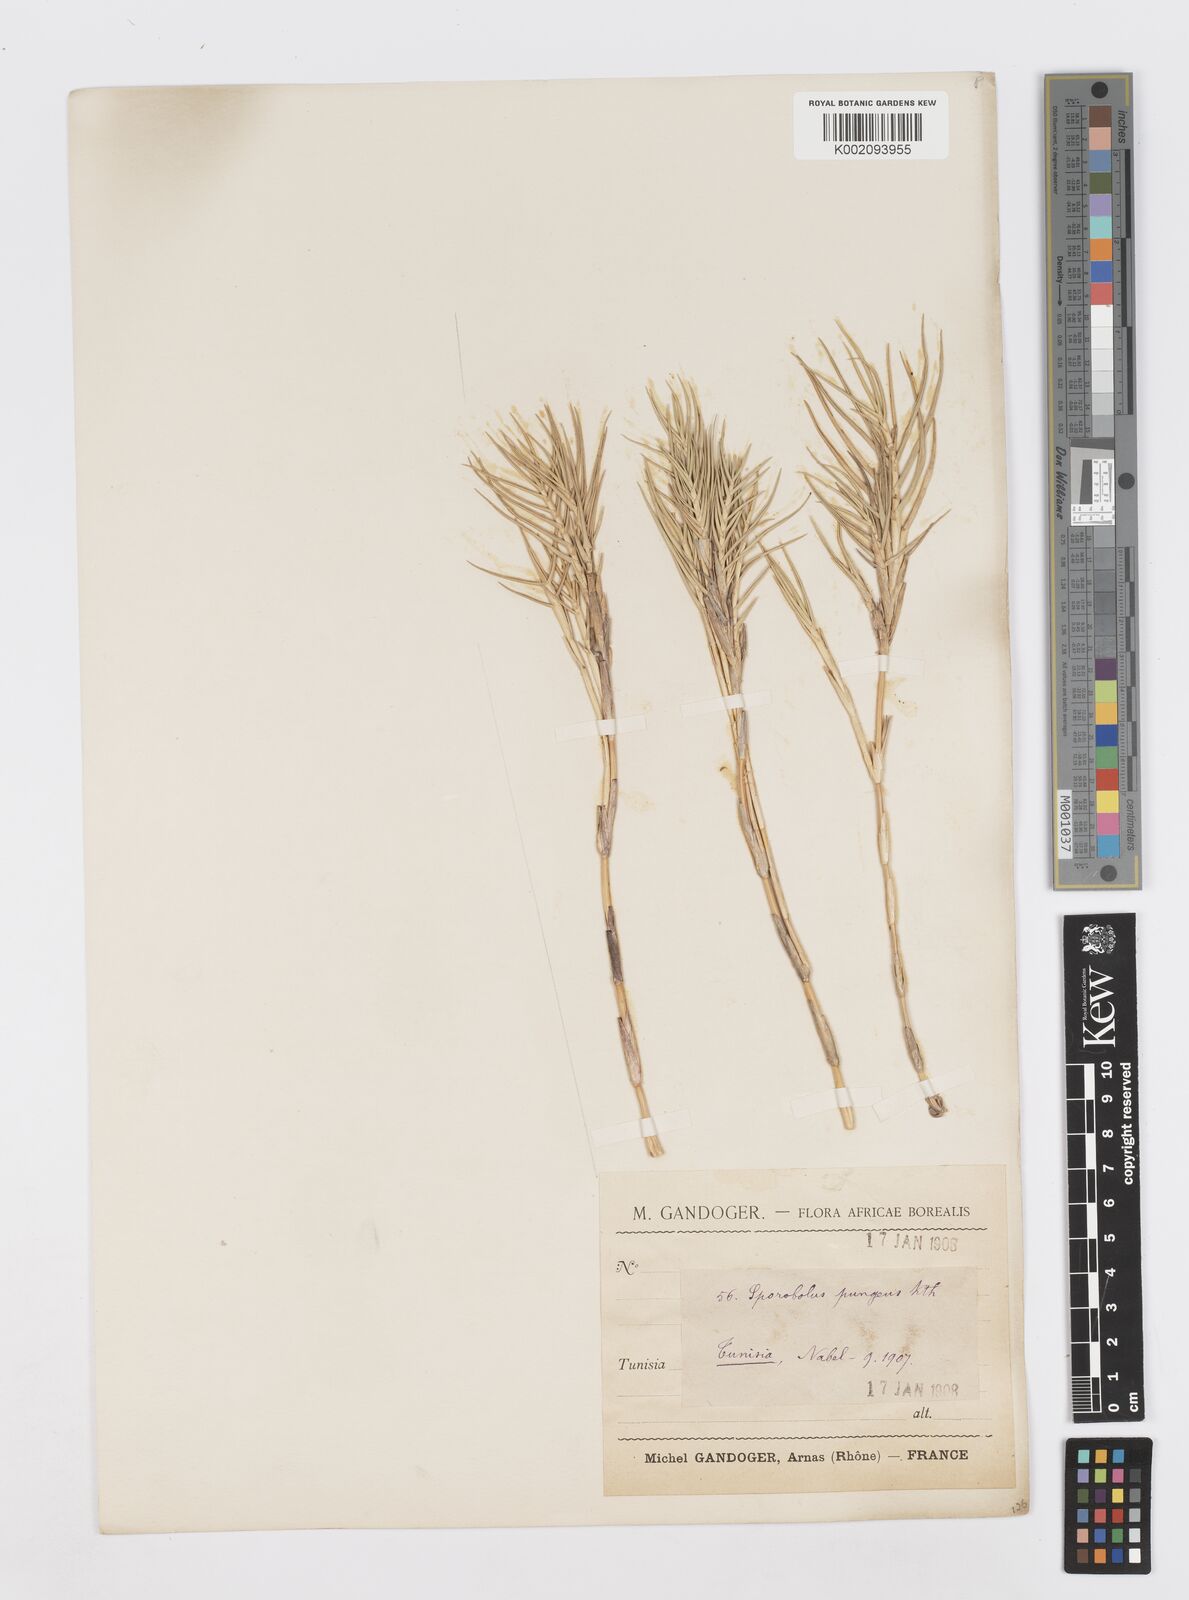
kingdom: Plantae
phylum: Tracheophyta
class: Liliopsida
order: Poales
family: Poaceae
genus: Sporobolus
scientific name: Sporobolus pungens
